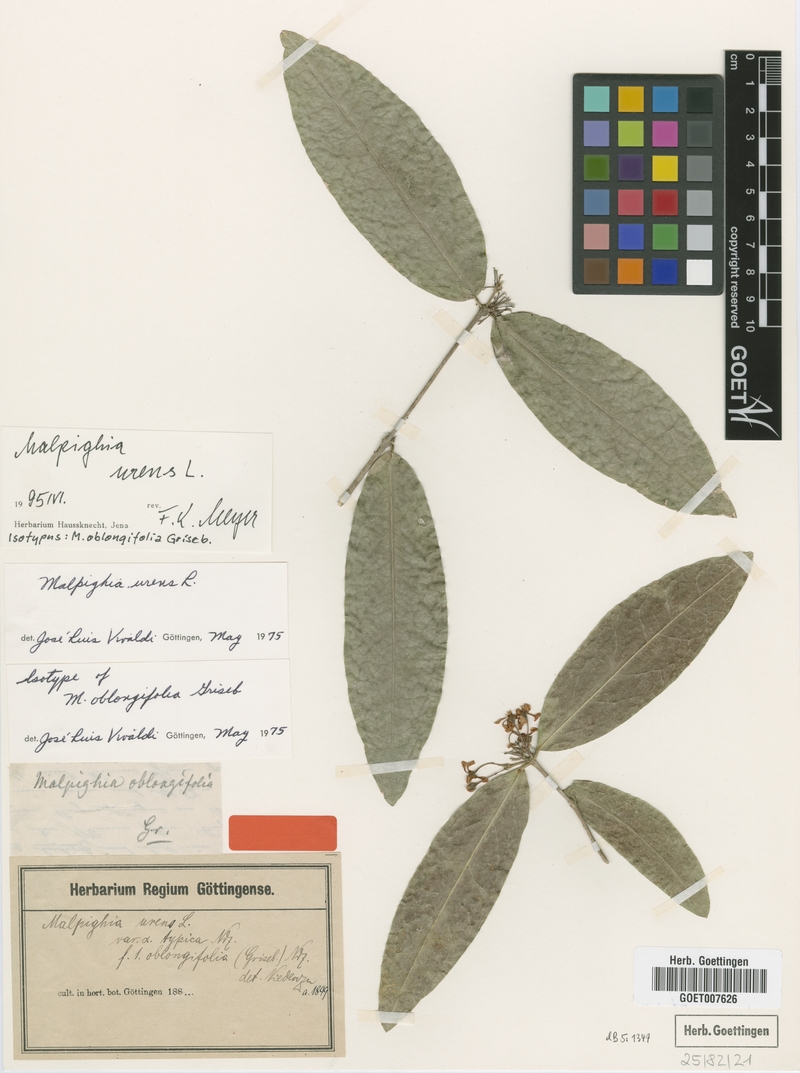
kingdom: Plantae
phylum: Tracheophyta
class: Magnoliopsida
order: Malpighiales
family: Malpighiaceae
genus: Malpighia
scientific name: Malpighia urens
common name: Cow-itch-cherry
